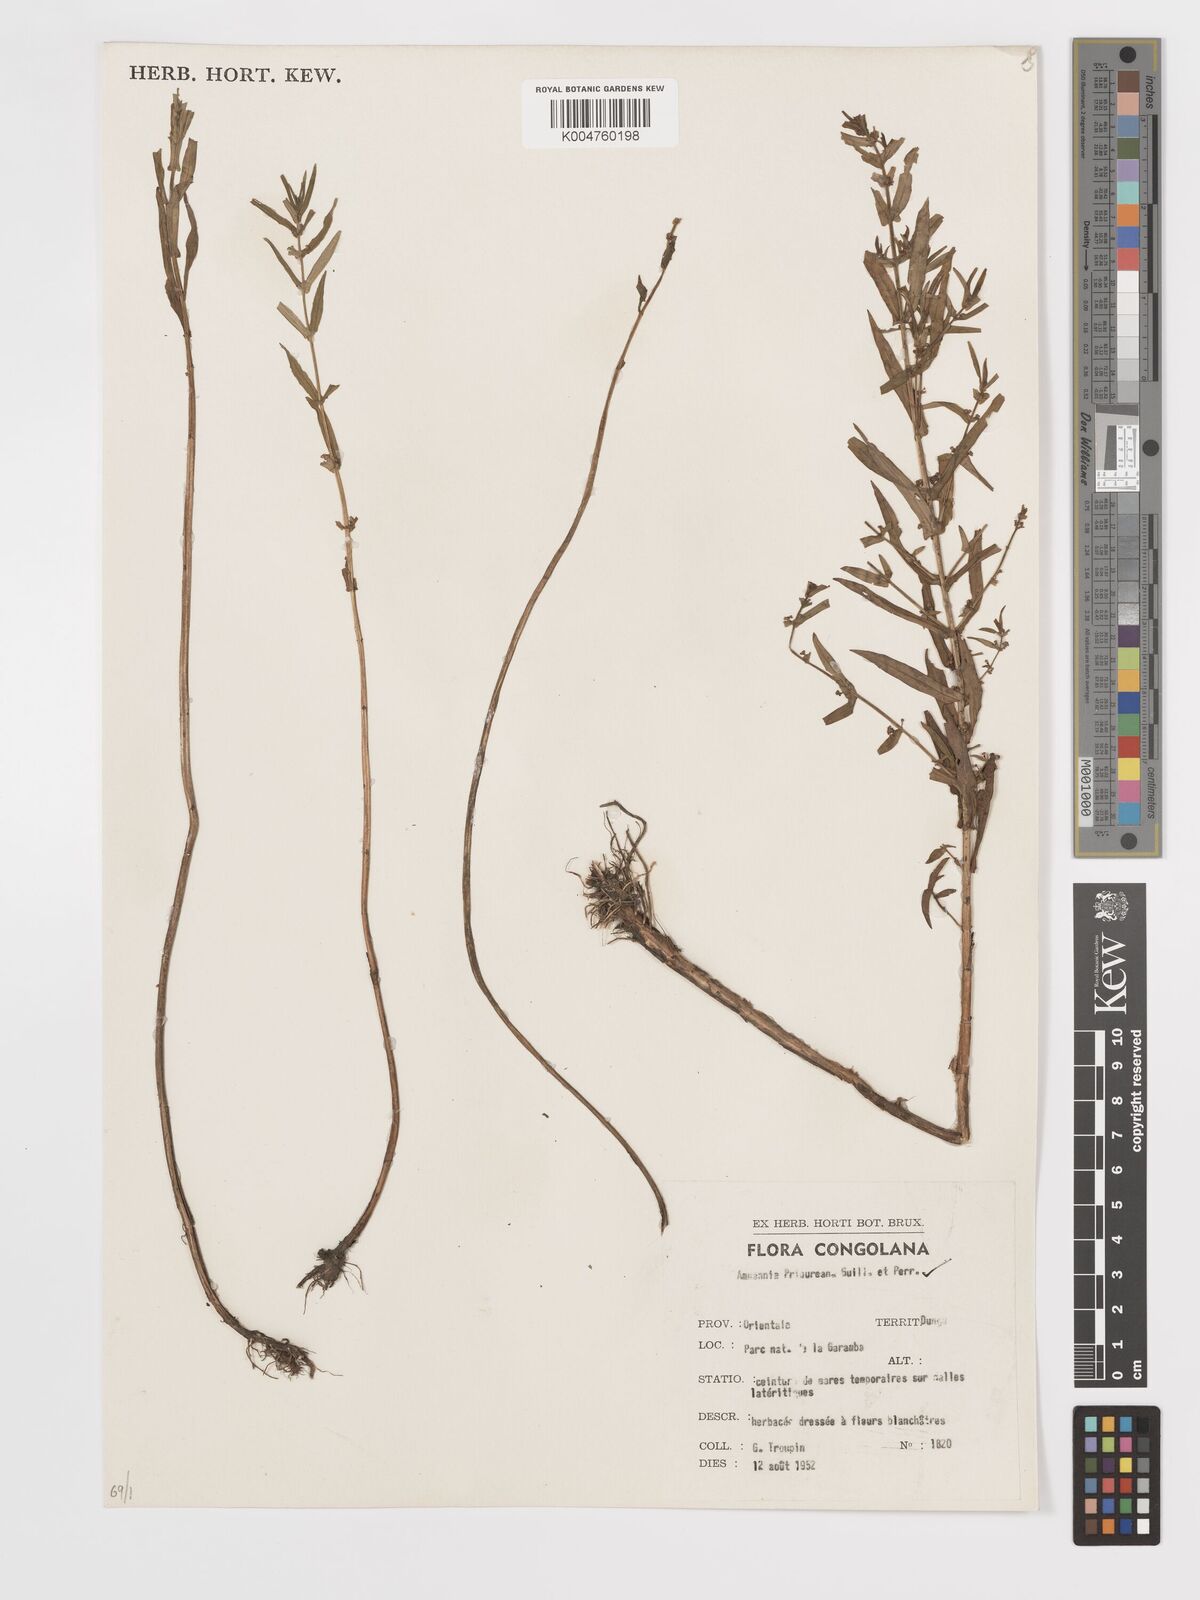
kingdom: Plantae
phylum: Tracheophyta
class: Magnoliopsida
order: Myrtales
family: Lythraceae
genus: Ammannia
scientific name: Ammannia prieuriana
